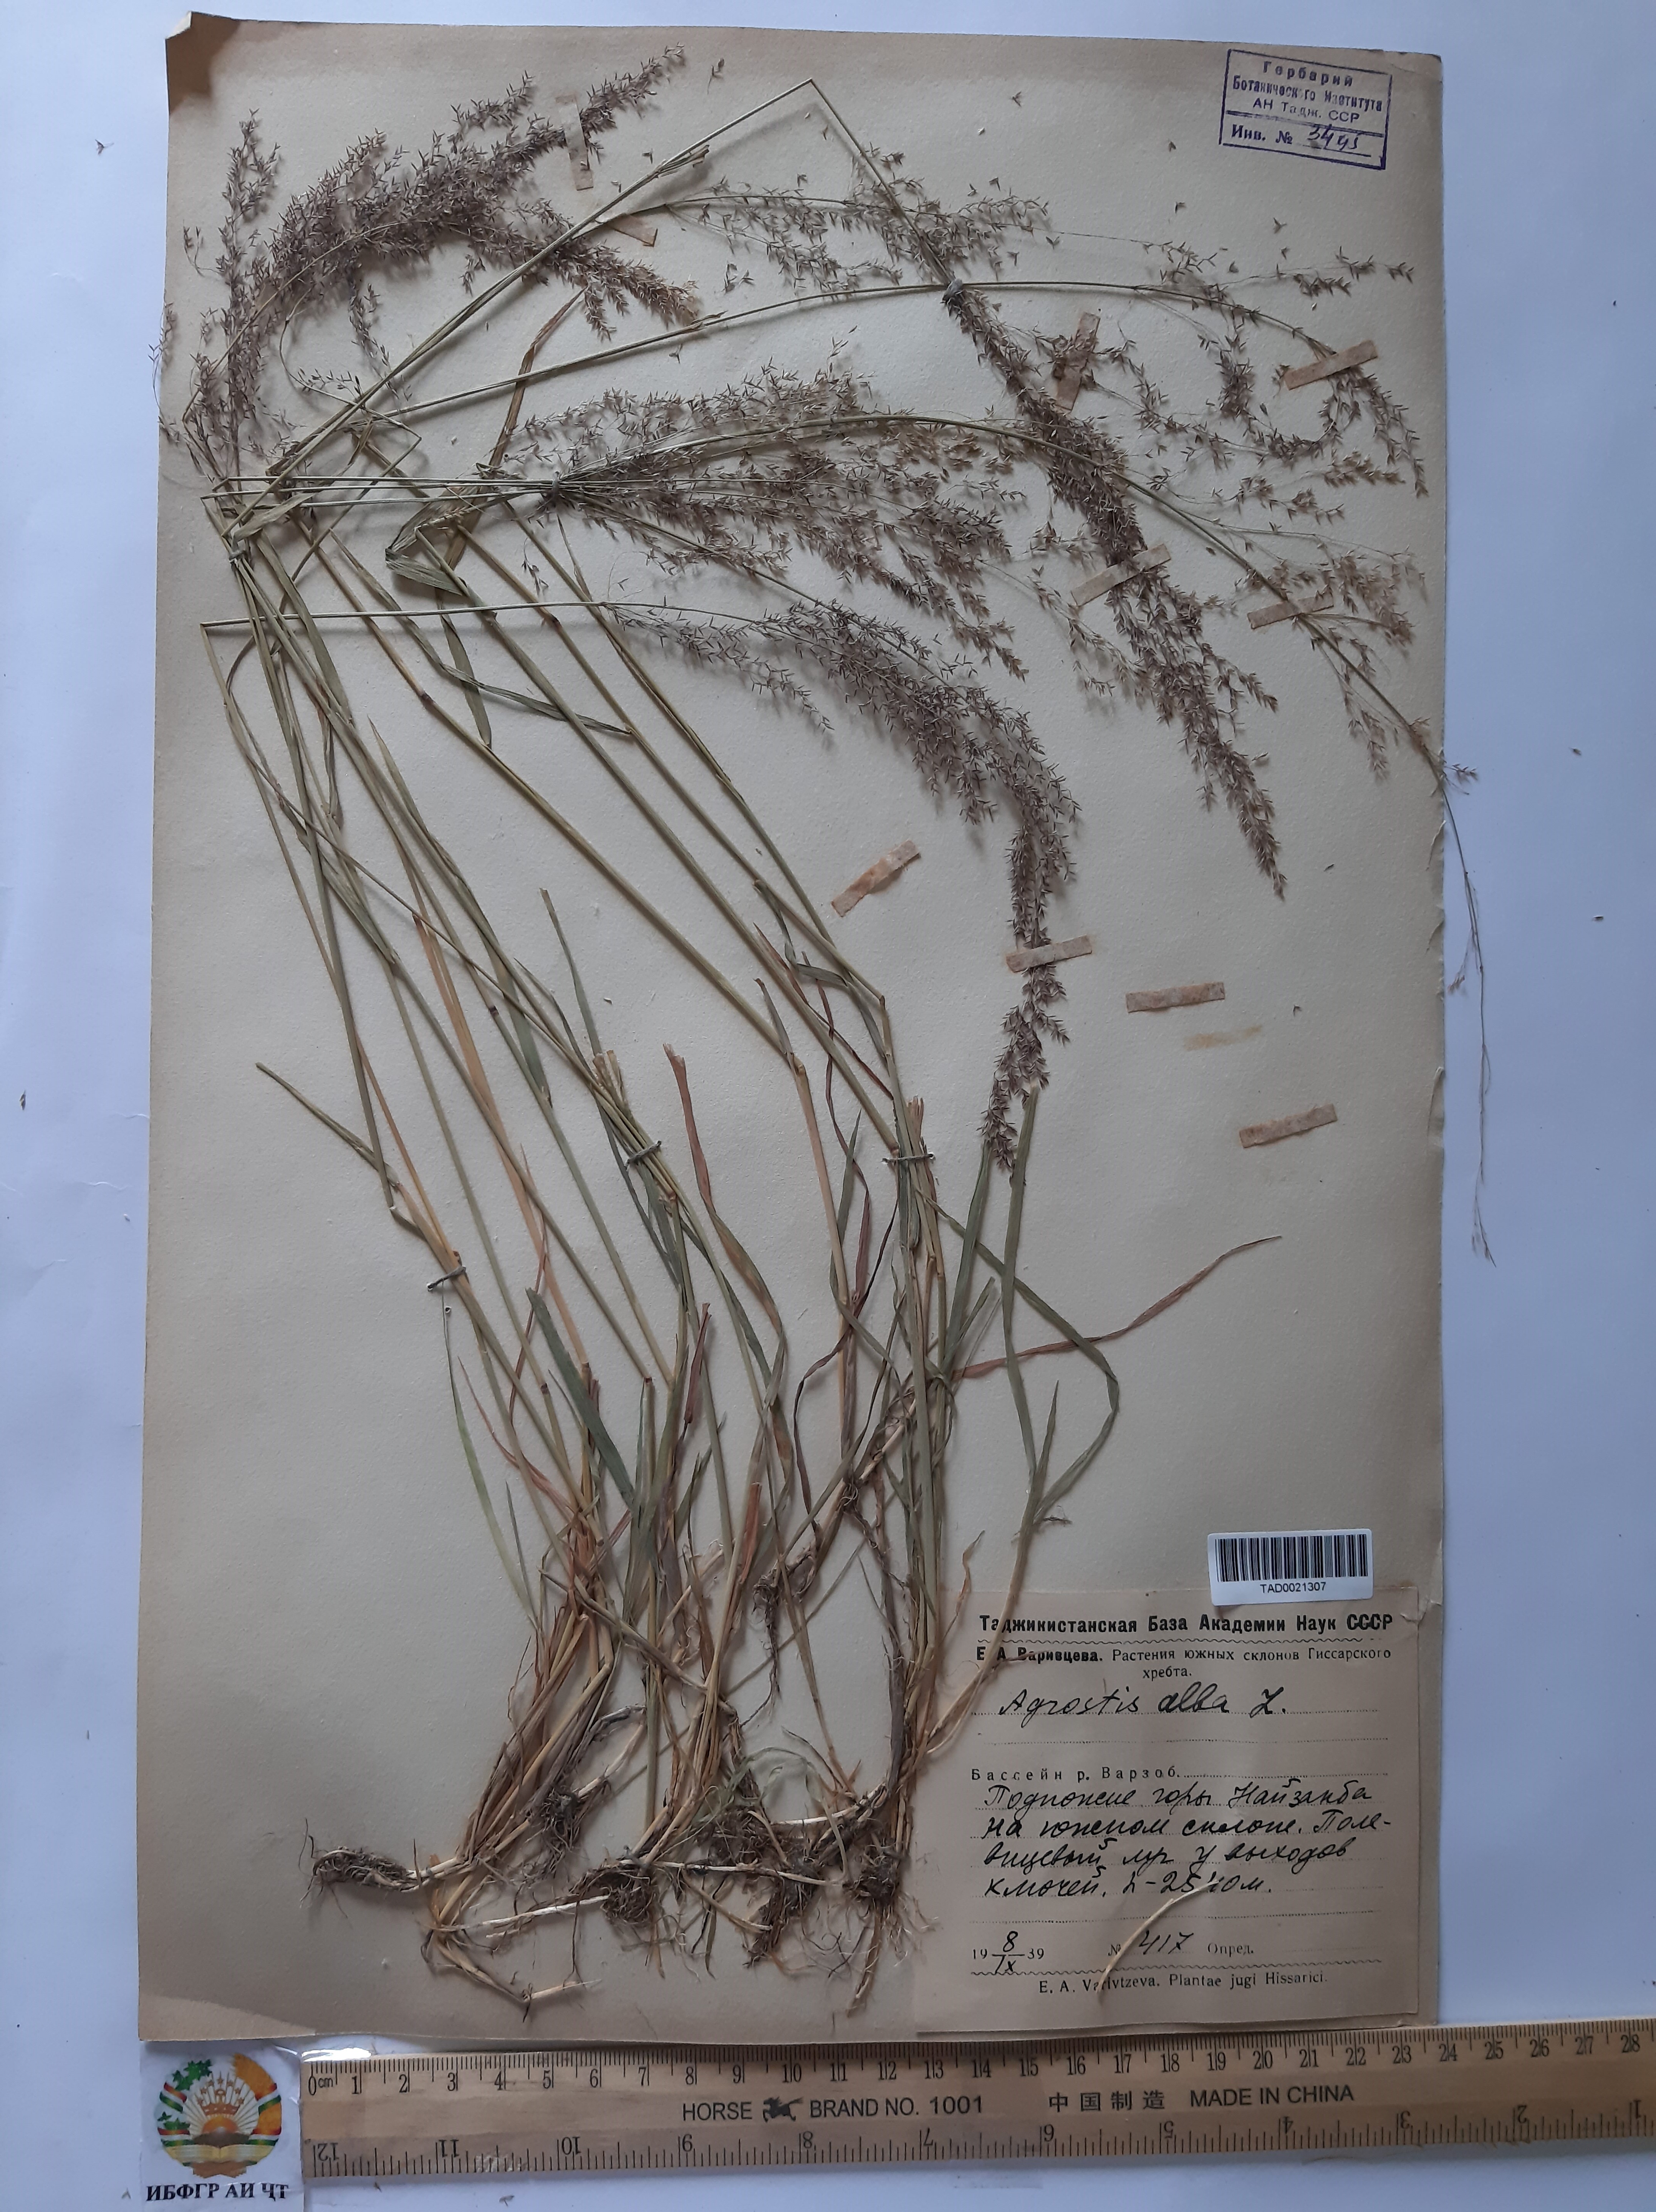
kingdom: Plantae
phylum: Tracheophyta
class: Liliopsida
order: Poales
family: Poaceae
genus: Poa
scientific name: Poa nemoralis
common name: Wood bluegrass
